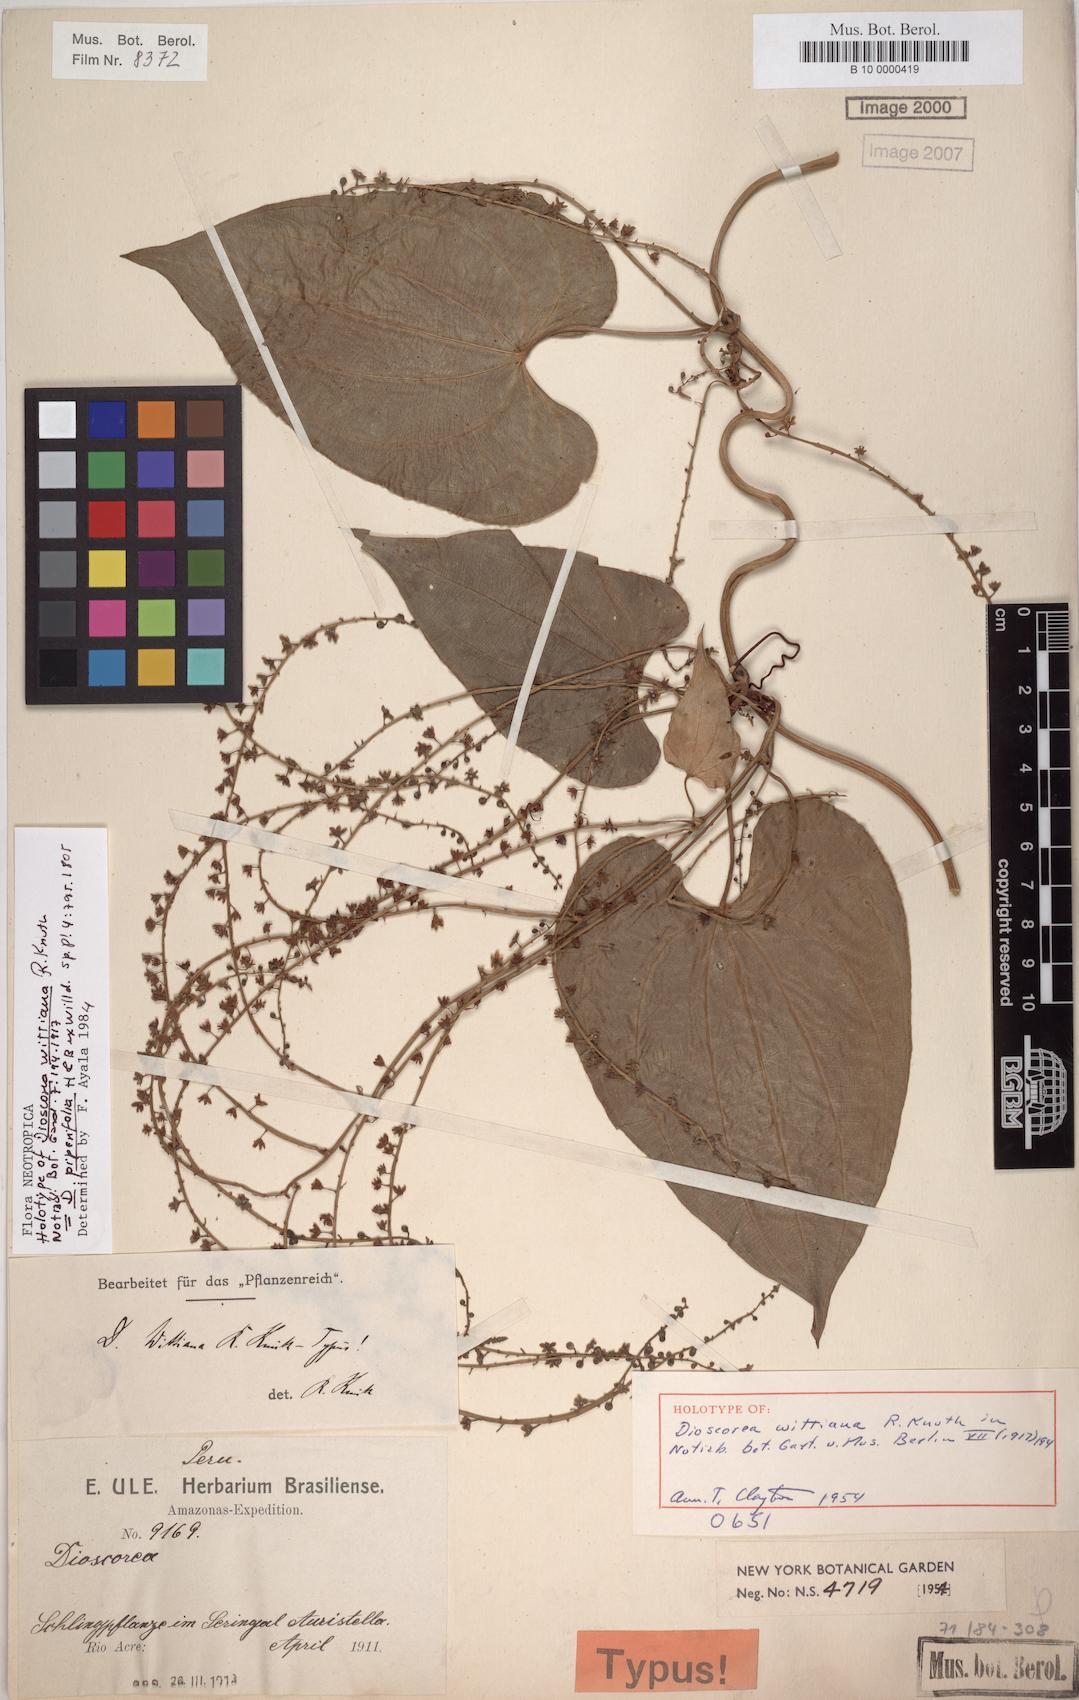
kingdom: Plantae
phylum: Tracheophyta
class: Liliopsida
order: Dioscoreales
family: Dioscoreaceae
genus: Dioscorea
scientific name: Dioscorea piperifolia
